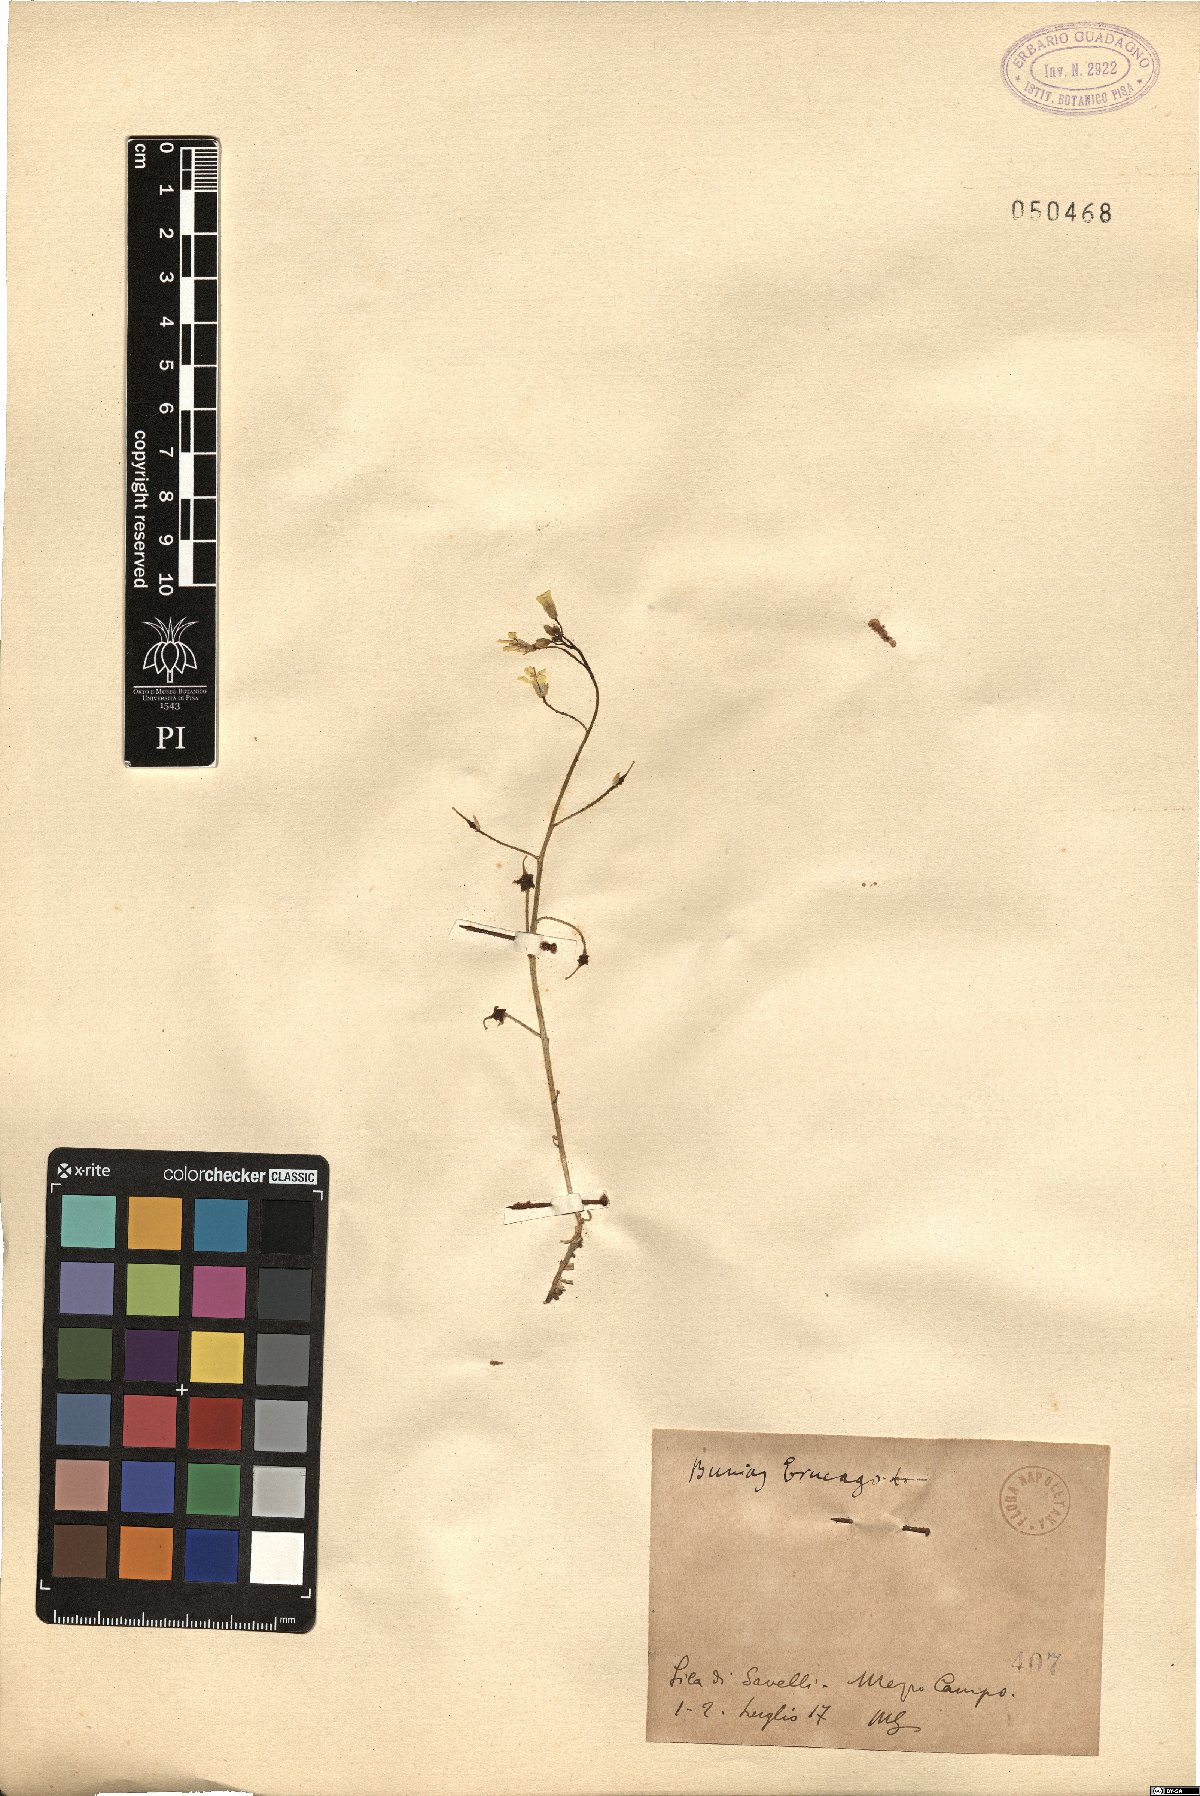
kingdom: Plantae
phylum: Tracheophyta
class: Magnoliopsida
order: Brassicales
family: Brassicaceae
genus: Bunias
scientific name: Bunias erucago
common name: Southern warty-cabbage
